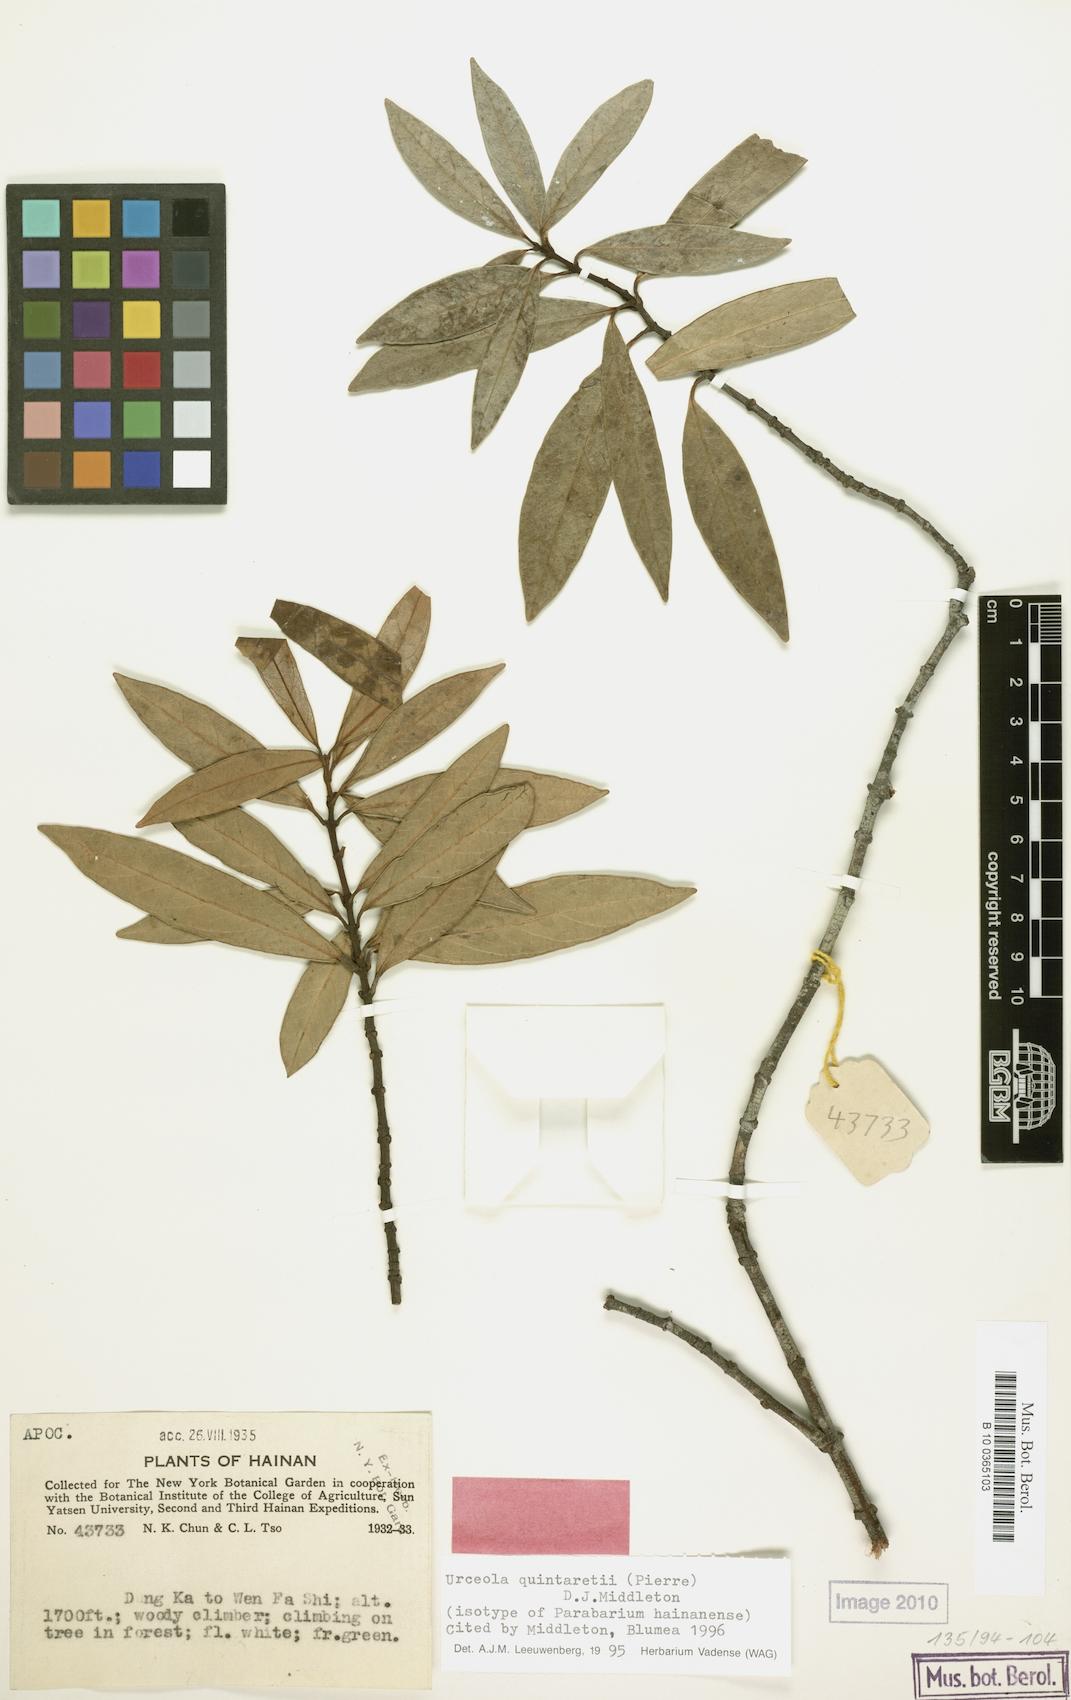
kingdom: Plantae
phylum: Tracheophyta
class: Magnoliopsida
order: Gentianales
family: Apocynaceae
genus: Urceola
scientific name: Urceola quintaretii
